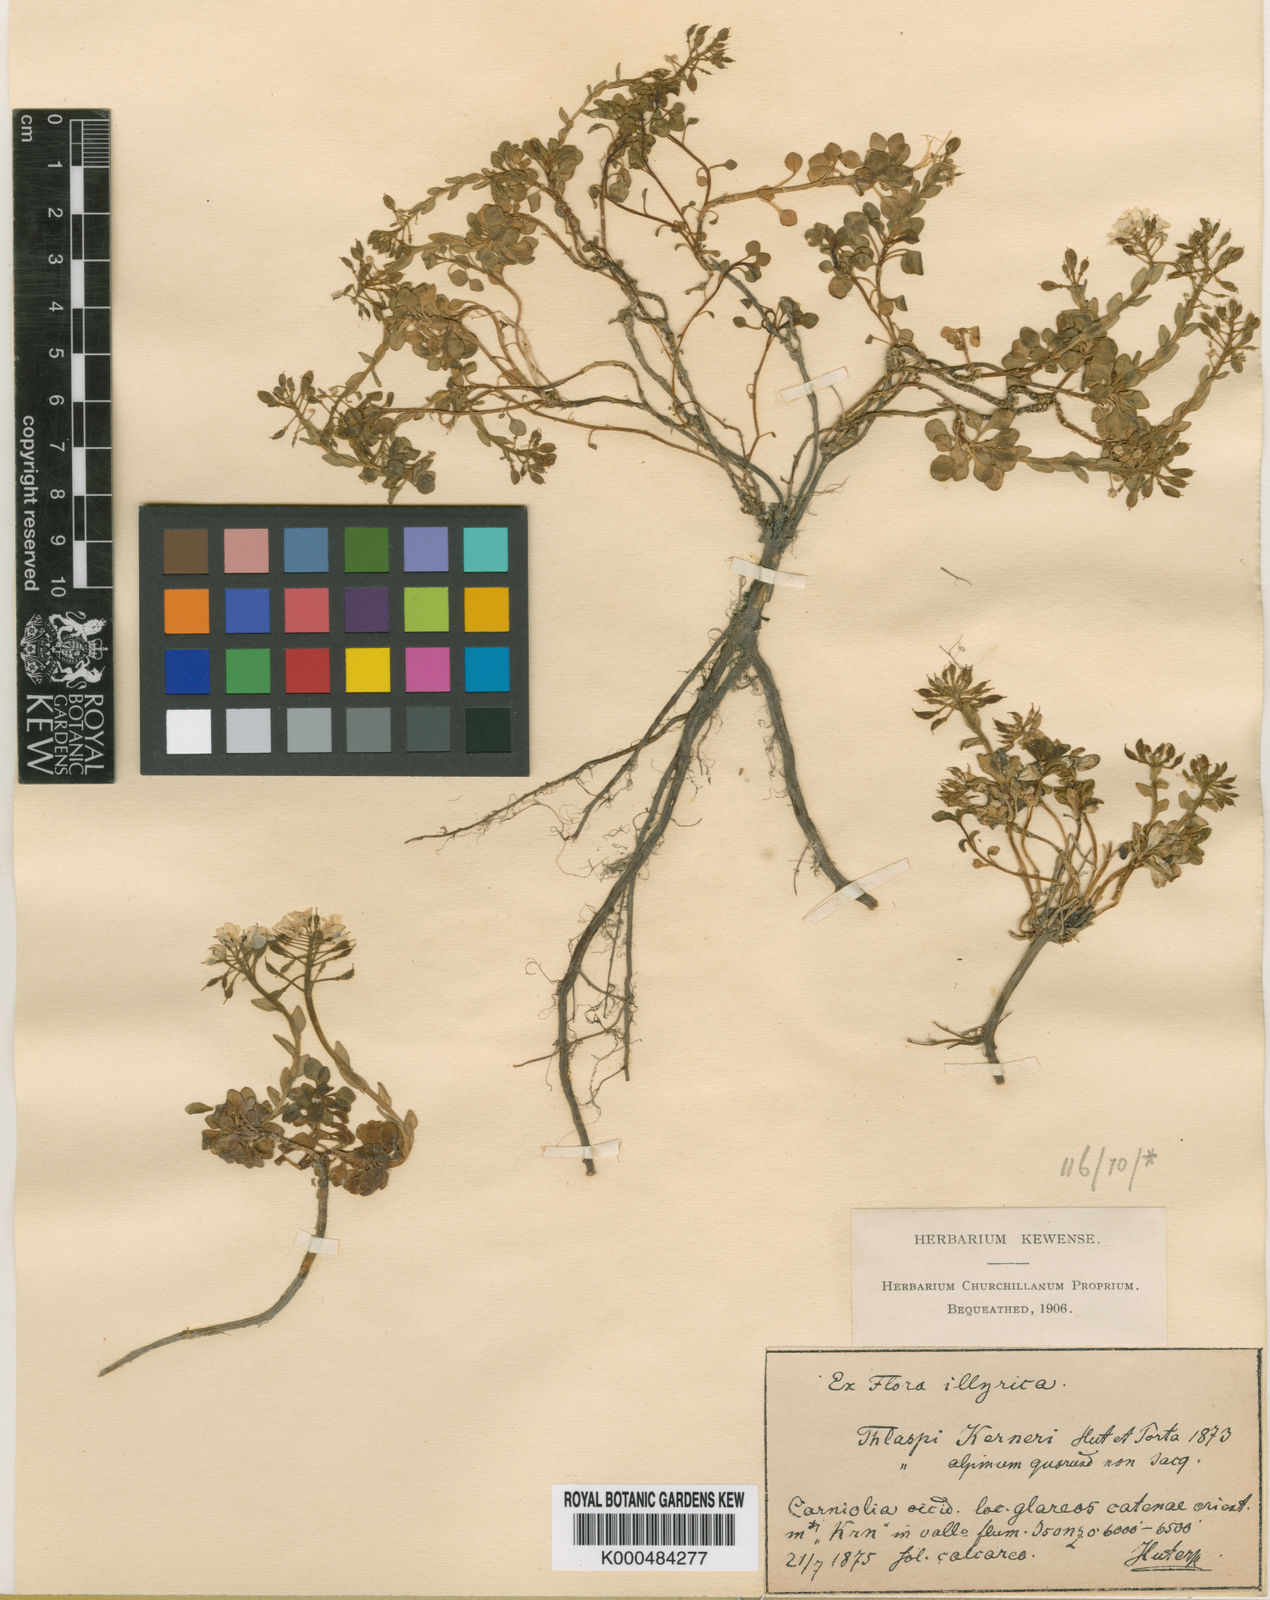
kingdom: Plantae
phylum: Tracheophyta
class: Magnoliopsida
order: Brassicales
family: Brassicaceae
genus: Noccaea
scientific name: Noccaea minima
